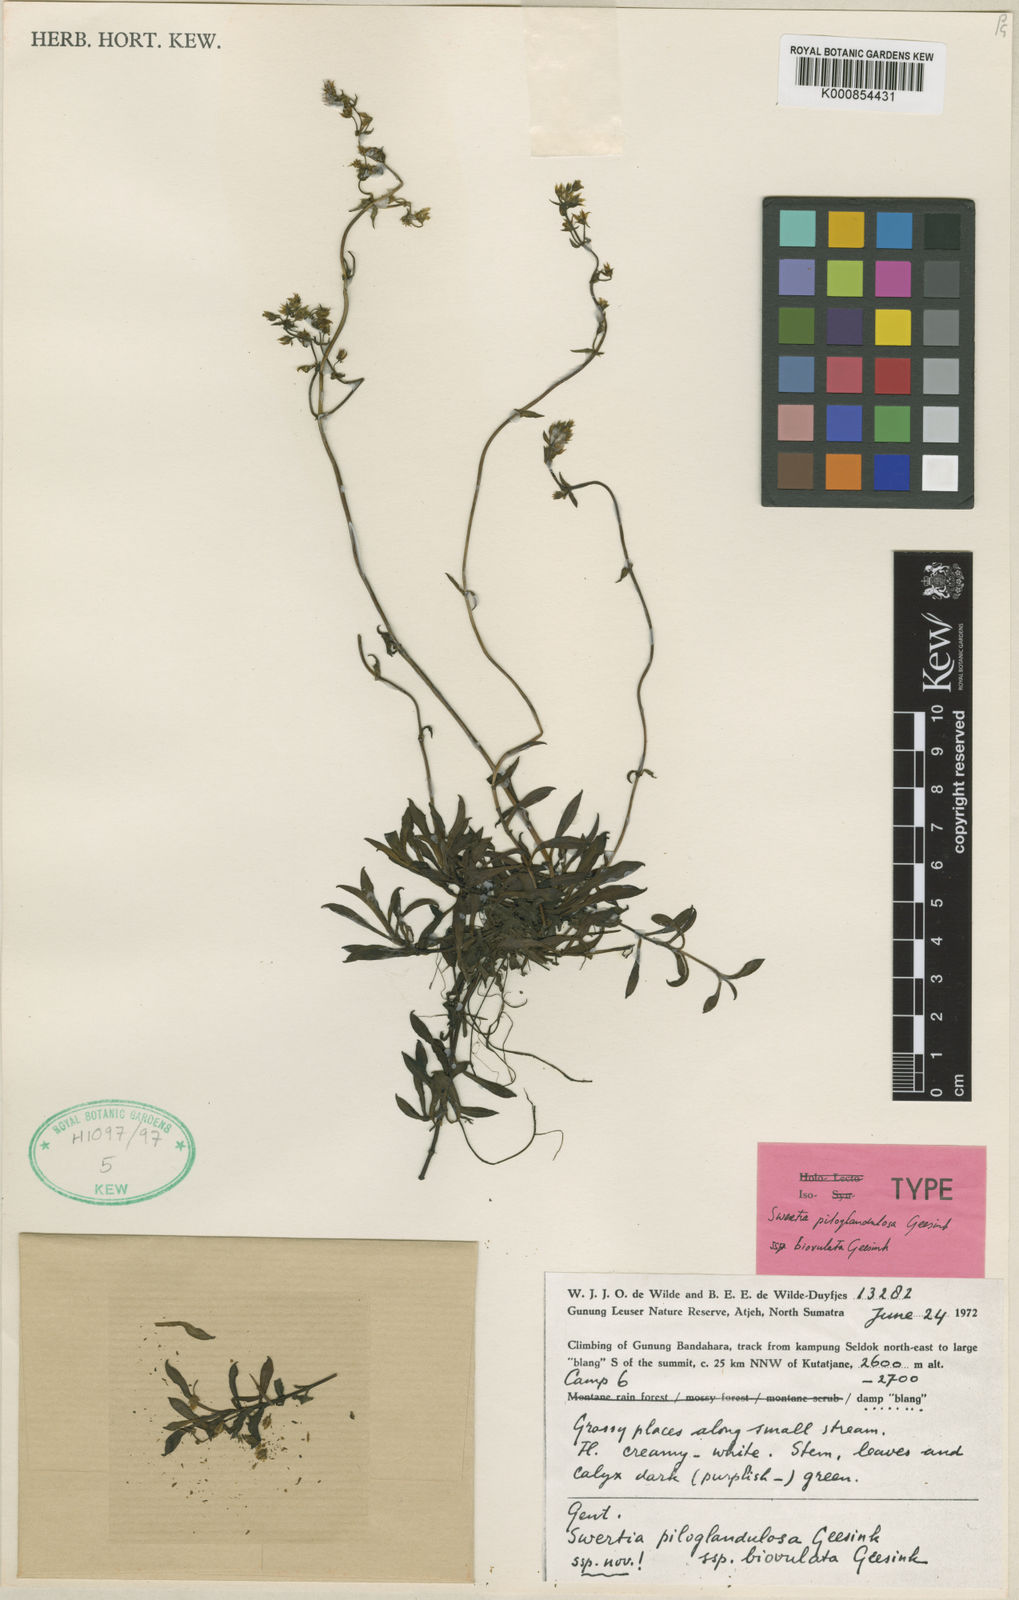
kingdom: Plantae
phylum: Tracheophyta
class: Magnoliopsida
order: Gentianales
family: Gentianaceae
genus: Swertia
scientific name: Swertia piloglandulosa
